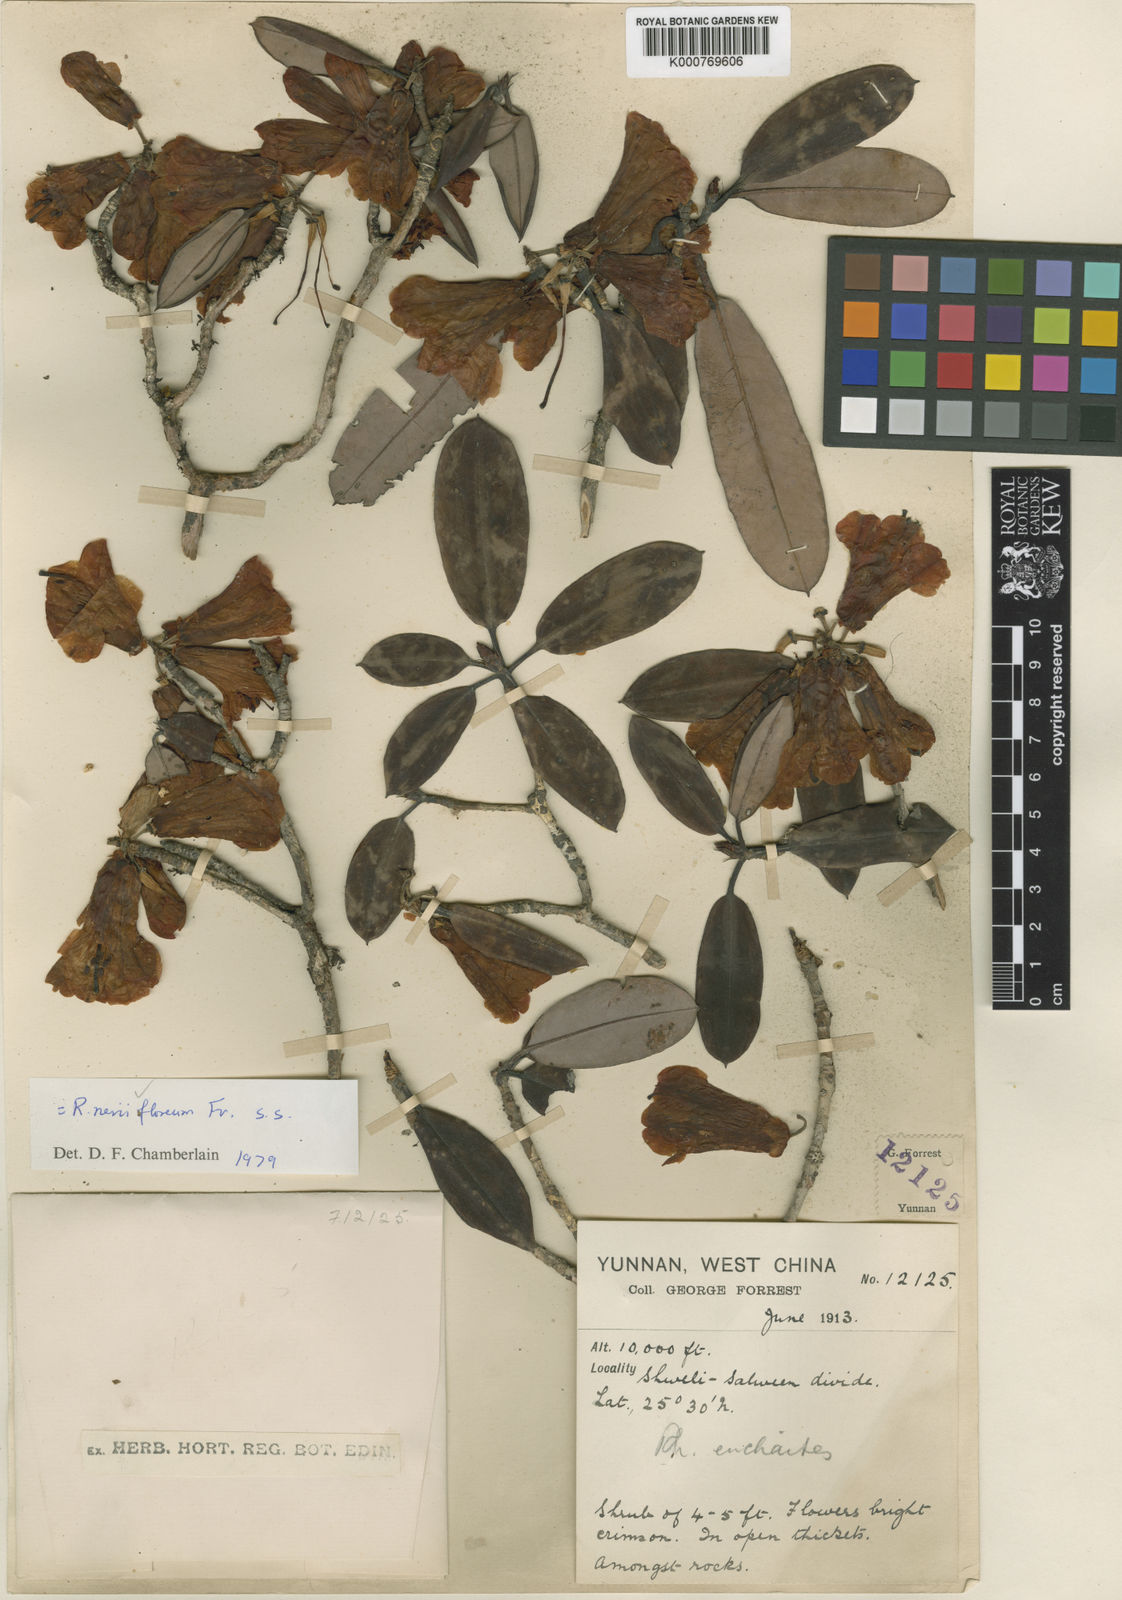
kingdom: Plantae
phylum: Tracheophyta
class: Magnoliopsida
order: Ericales
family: Ericaceae
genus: Rhododendron
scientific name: Rhododendron neriiflorum
